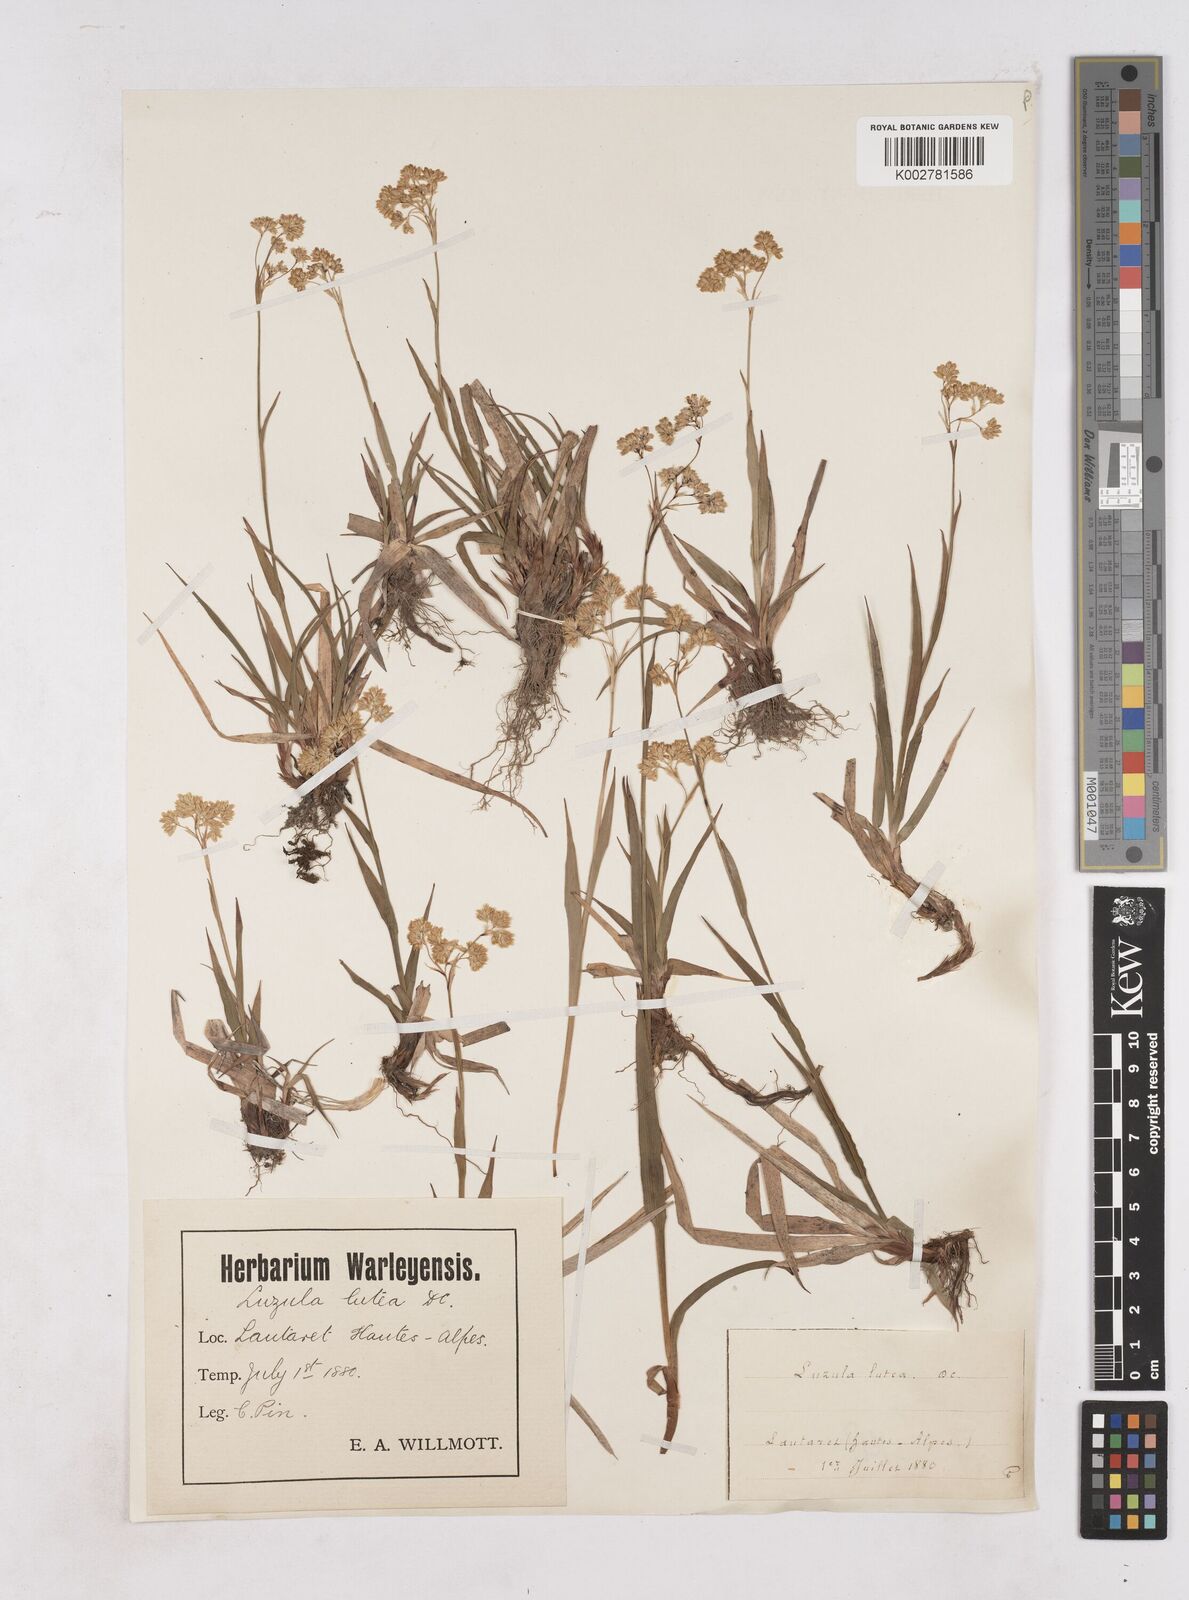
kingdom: Plantae
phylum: Tracheophyta
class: Liliopsida
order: Poales
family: Juncaceae
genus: Luzula
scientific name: Luzula lutea
